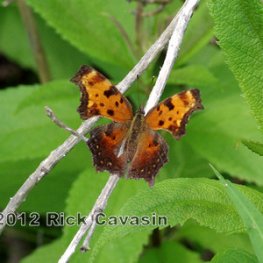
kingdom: Animalia
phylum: Arthropoda
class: Insecta
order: Lepidoptera
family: Nymphalidae
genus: Polygonia
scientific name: Polygonia progne
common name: Gray Comma
